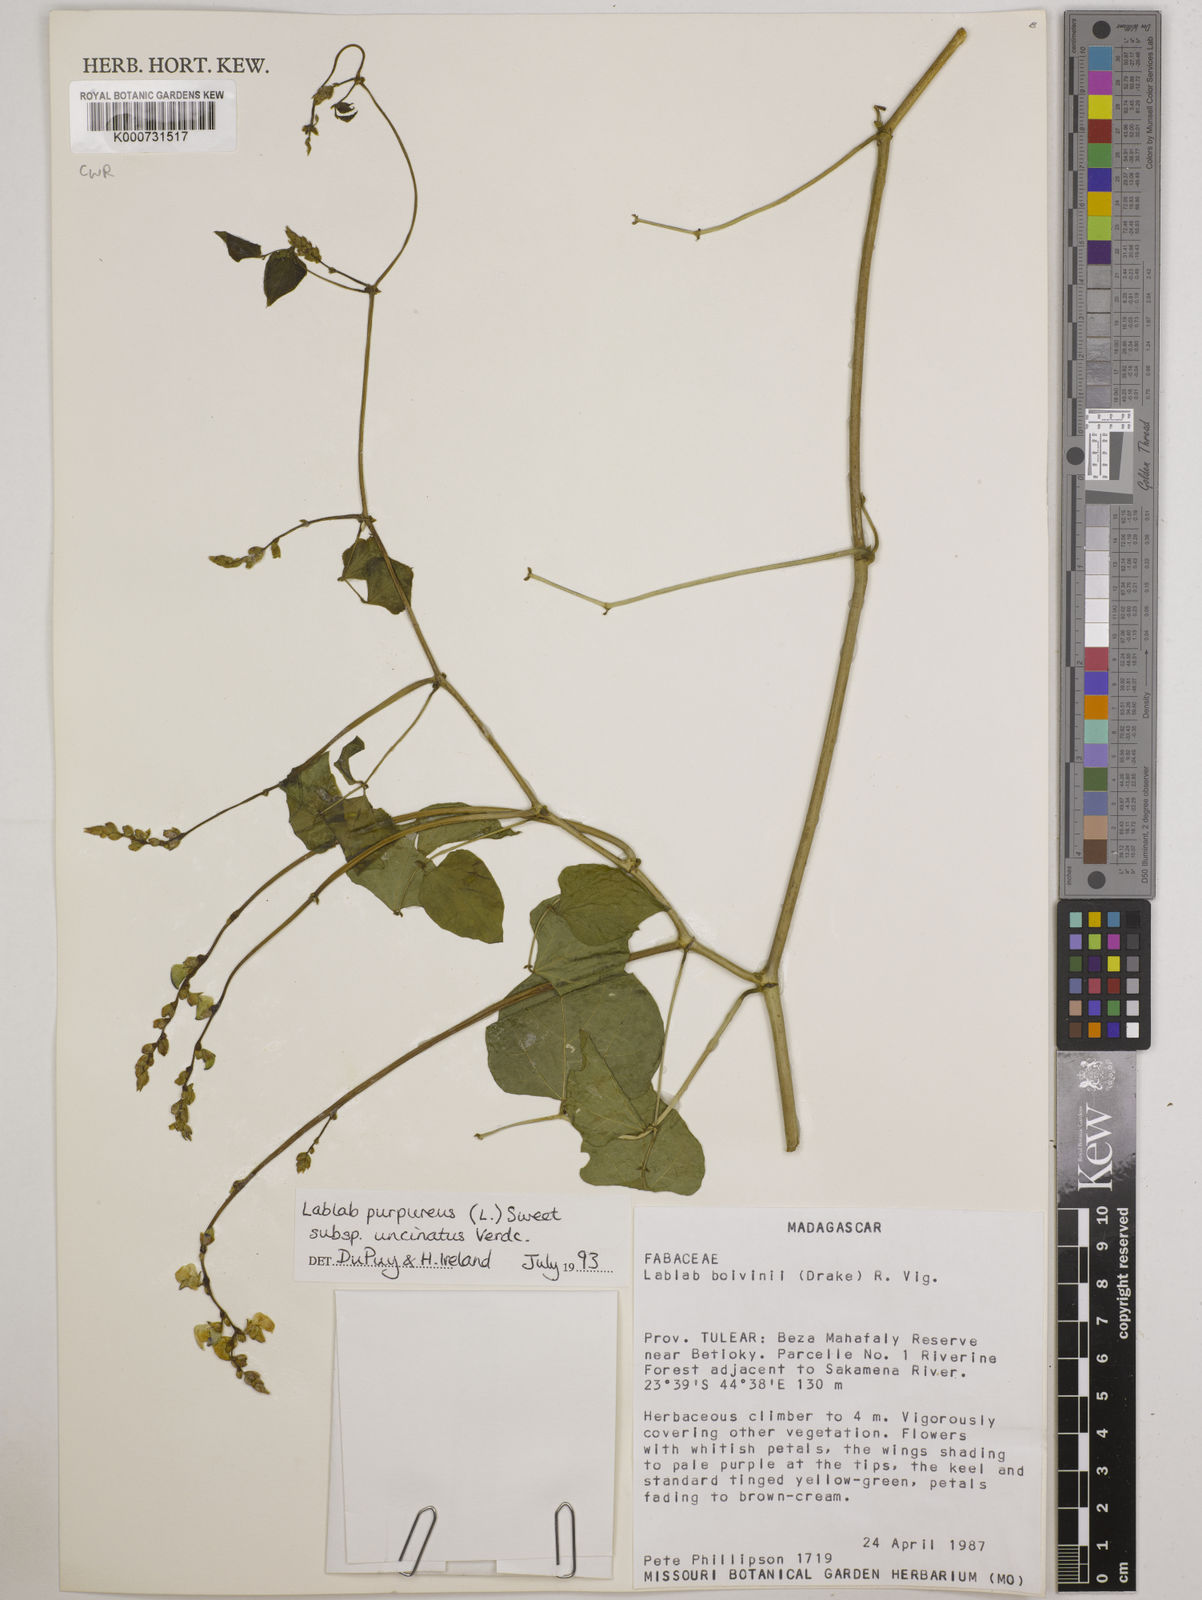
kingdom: Plantae
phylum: Tracheophyta
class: Magnoliopsida
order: Fabales
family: Fabaceae
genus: Lablab
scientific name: Lablab purpureus
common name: Lablab-bean
